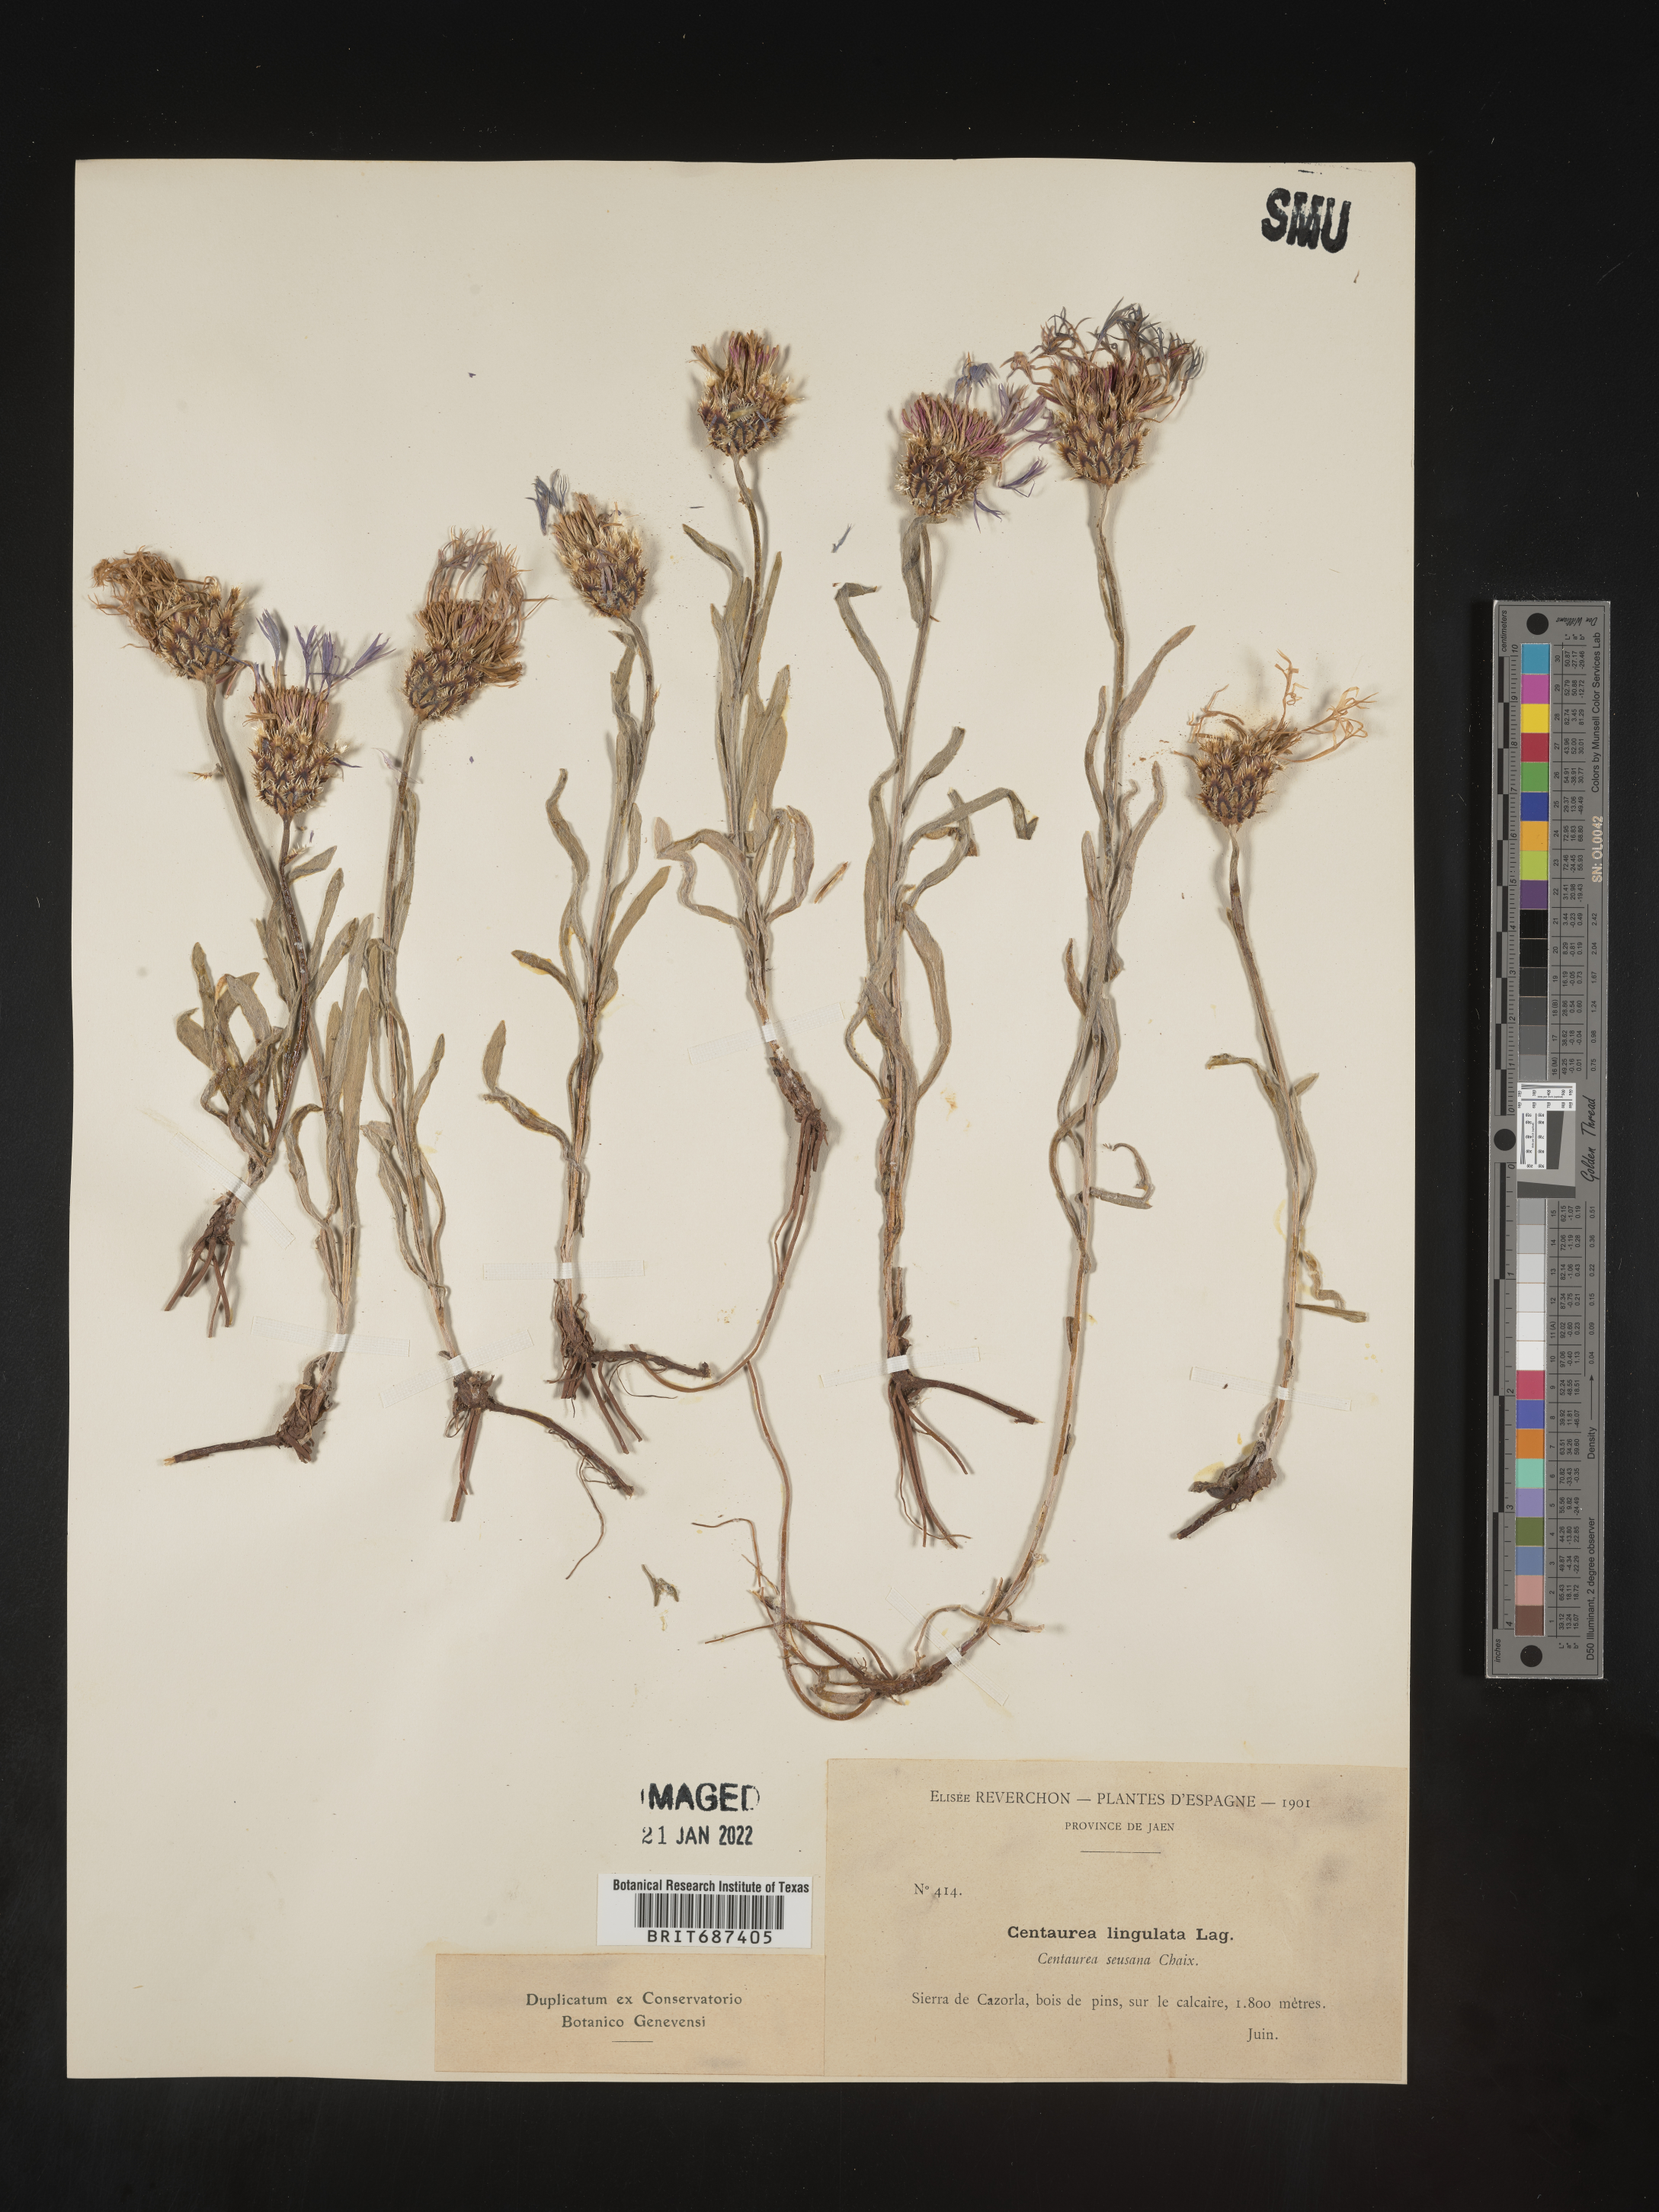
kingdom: Plantae
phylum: Tracheophyta
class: Magnoliopsida
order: Asterales
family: Asteraceae
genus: Centaurea
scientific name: Centaurea
